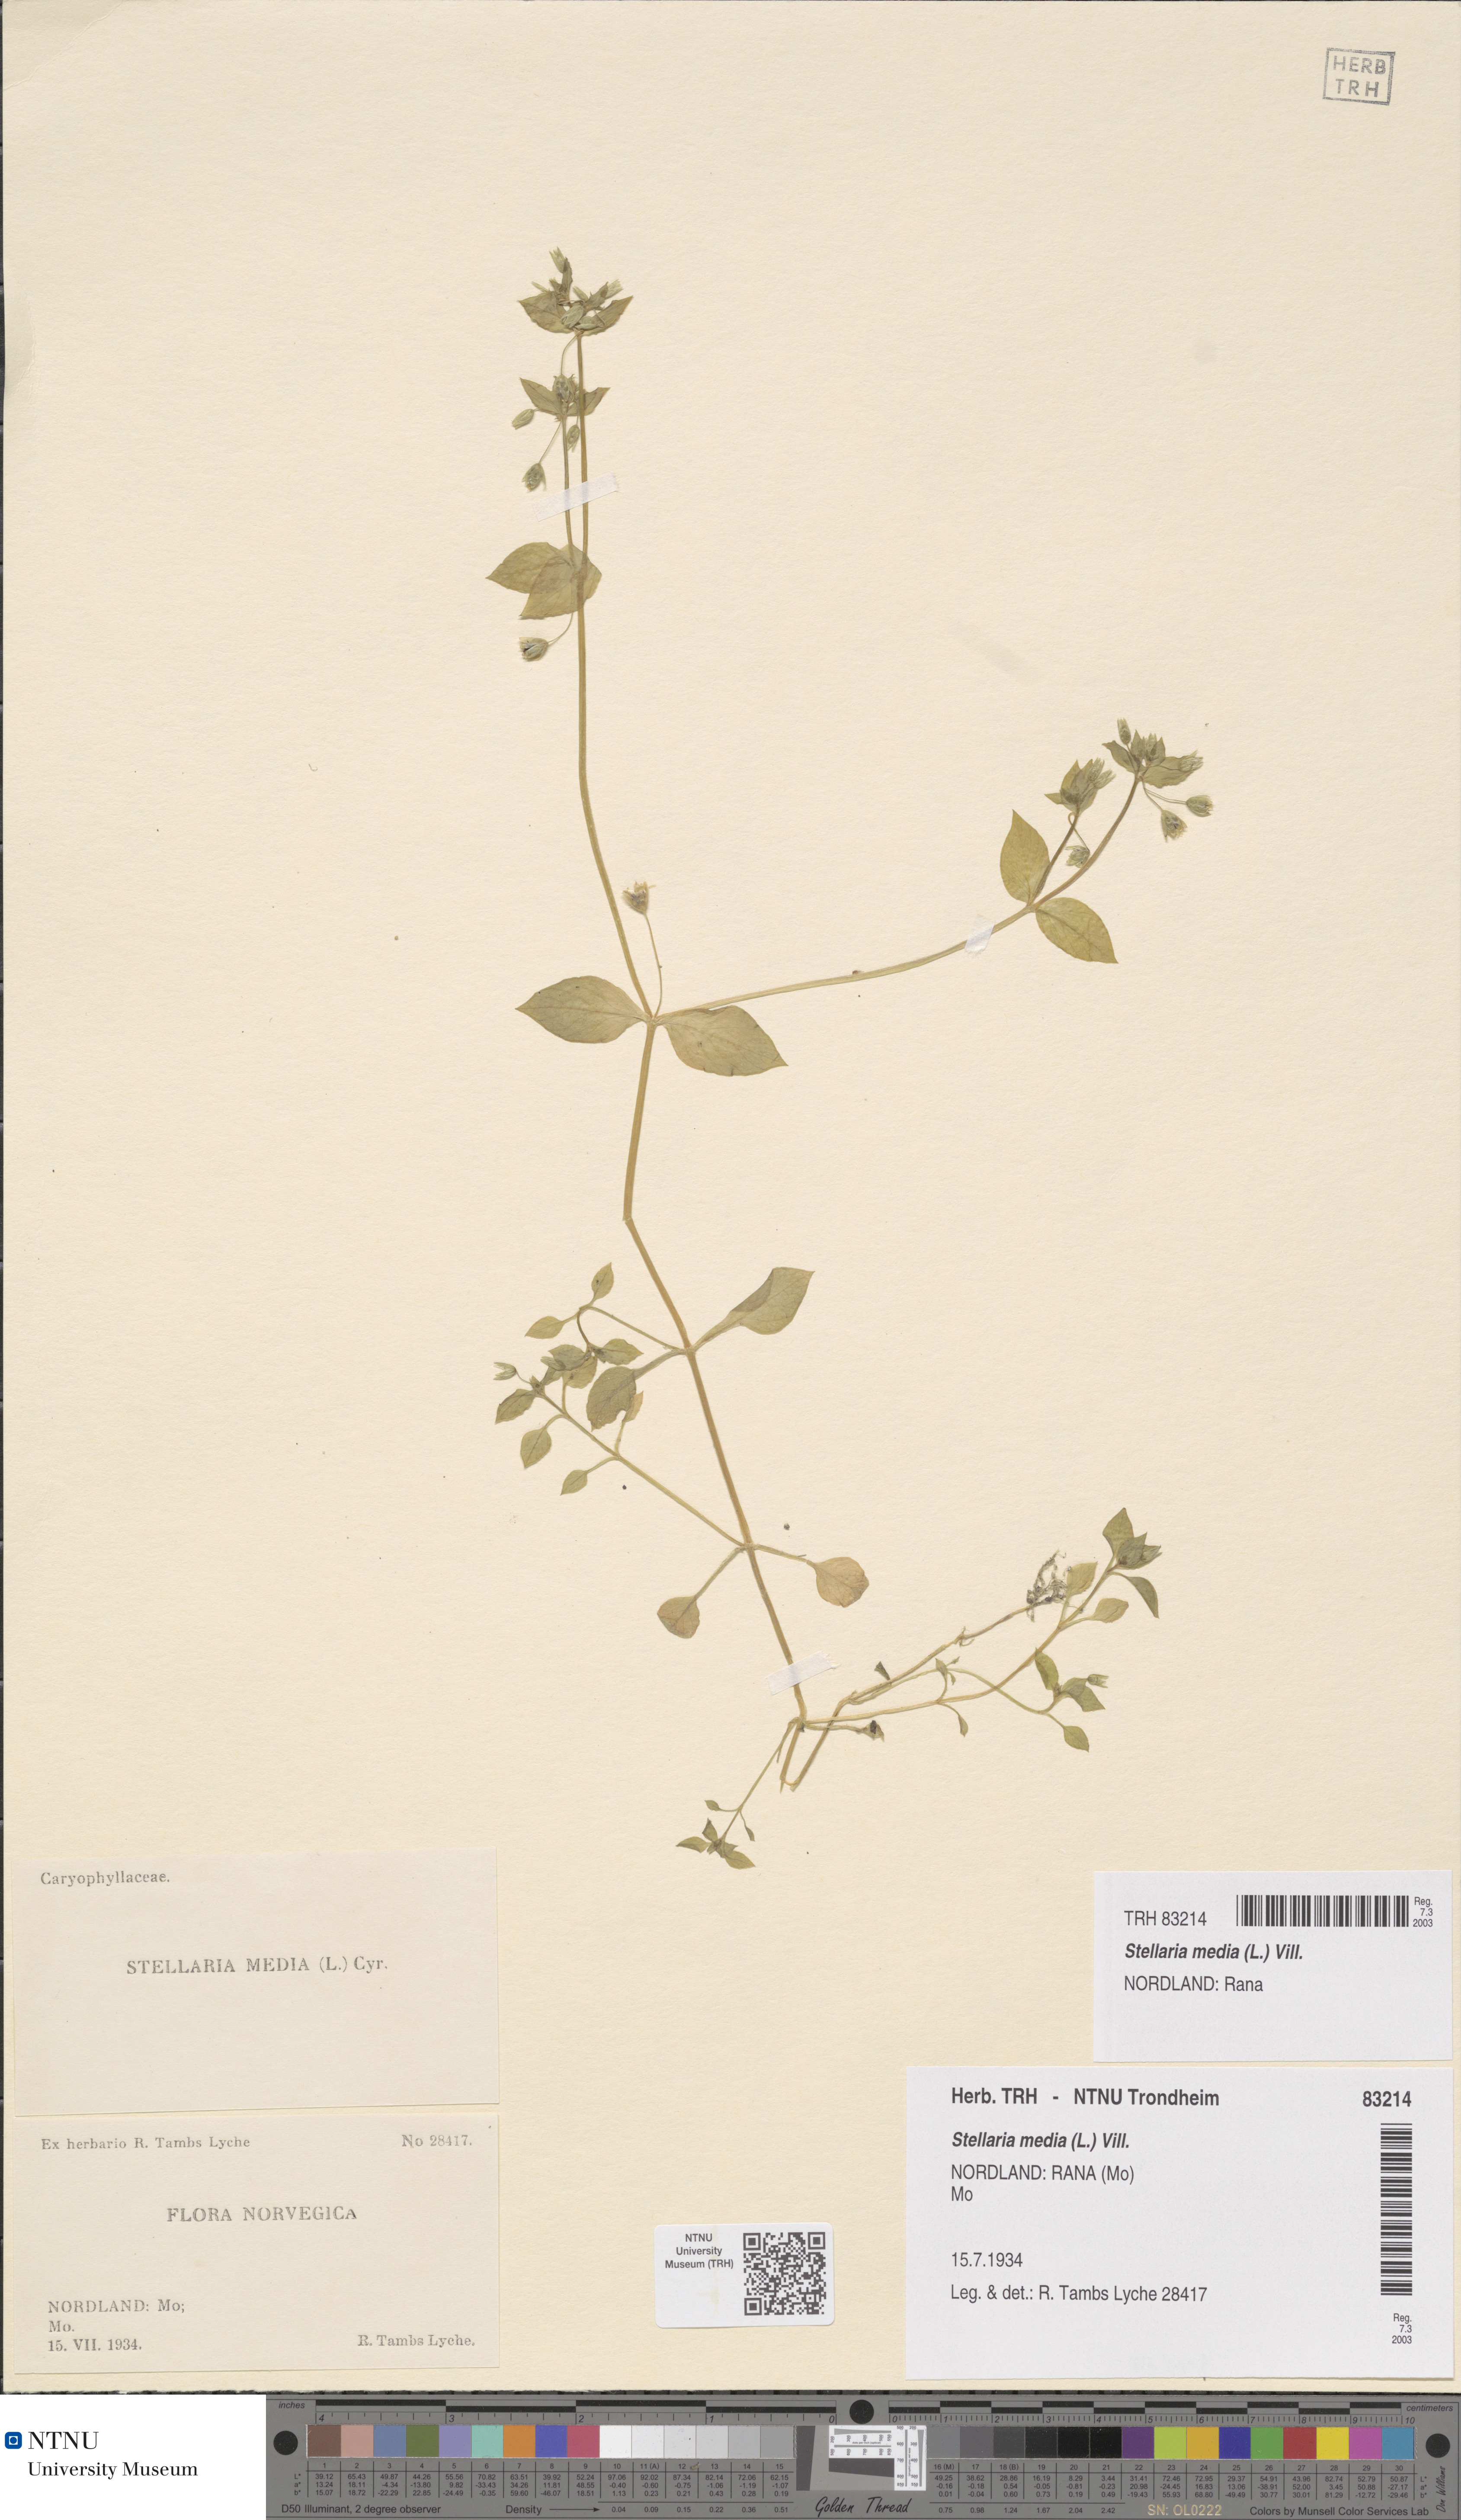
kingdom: Plantae
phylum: Tracheophyta
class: Magnoliopsida
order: Caryophyllales
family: Caryophyllaceae
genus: Stellaria
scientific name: Stellaria media
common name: Common chickweed
